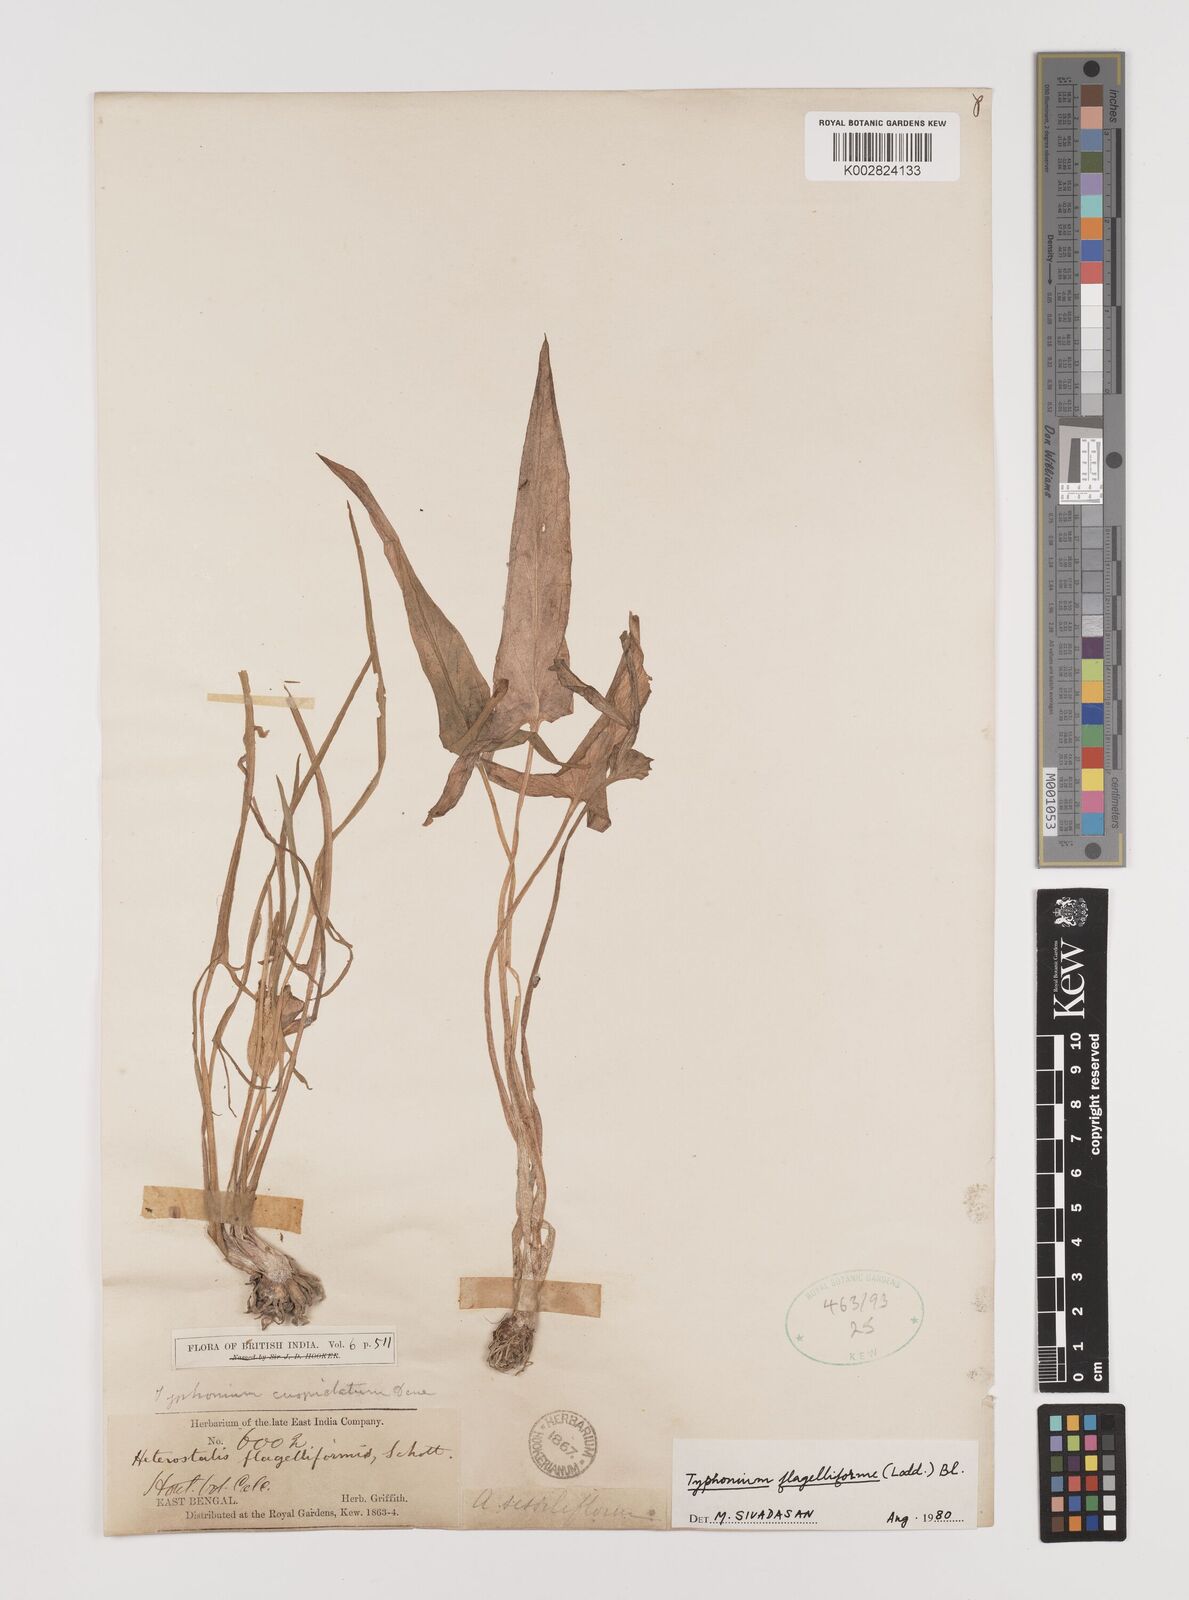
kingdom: Plantae
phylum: Tracheophyta
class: Liliopsida
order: Alismatales
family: Araceae
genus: Typhonium
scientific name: Typhonium flagelliforme
